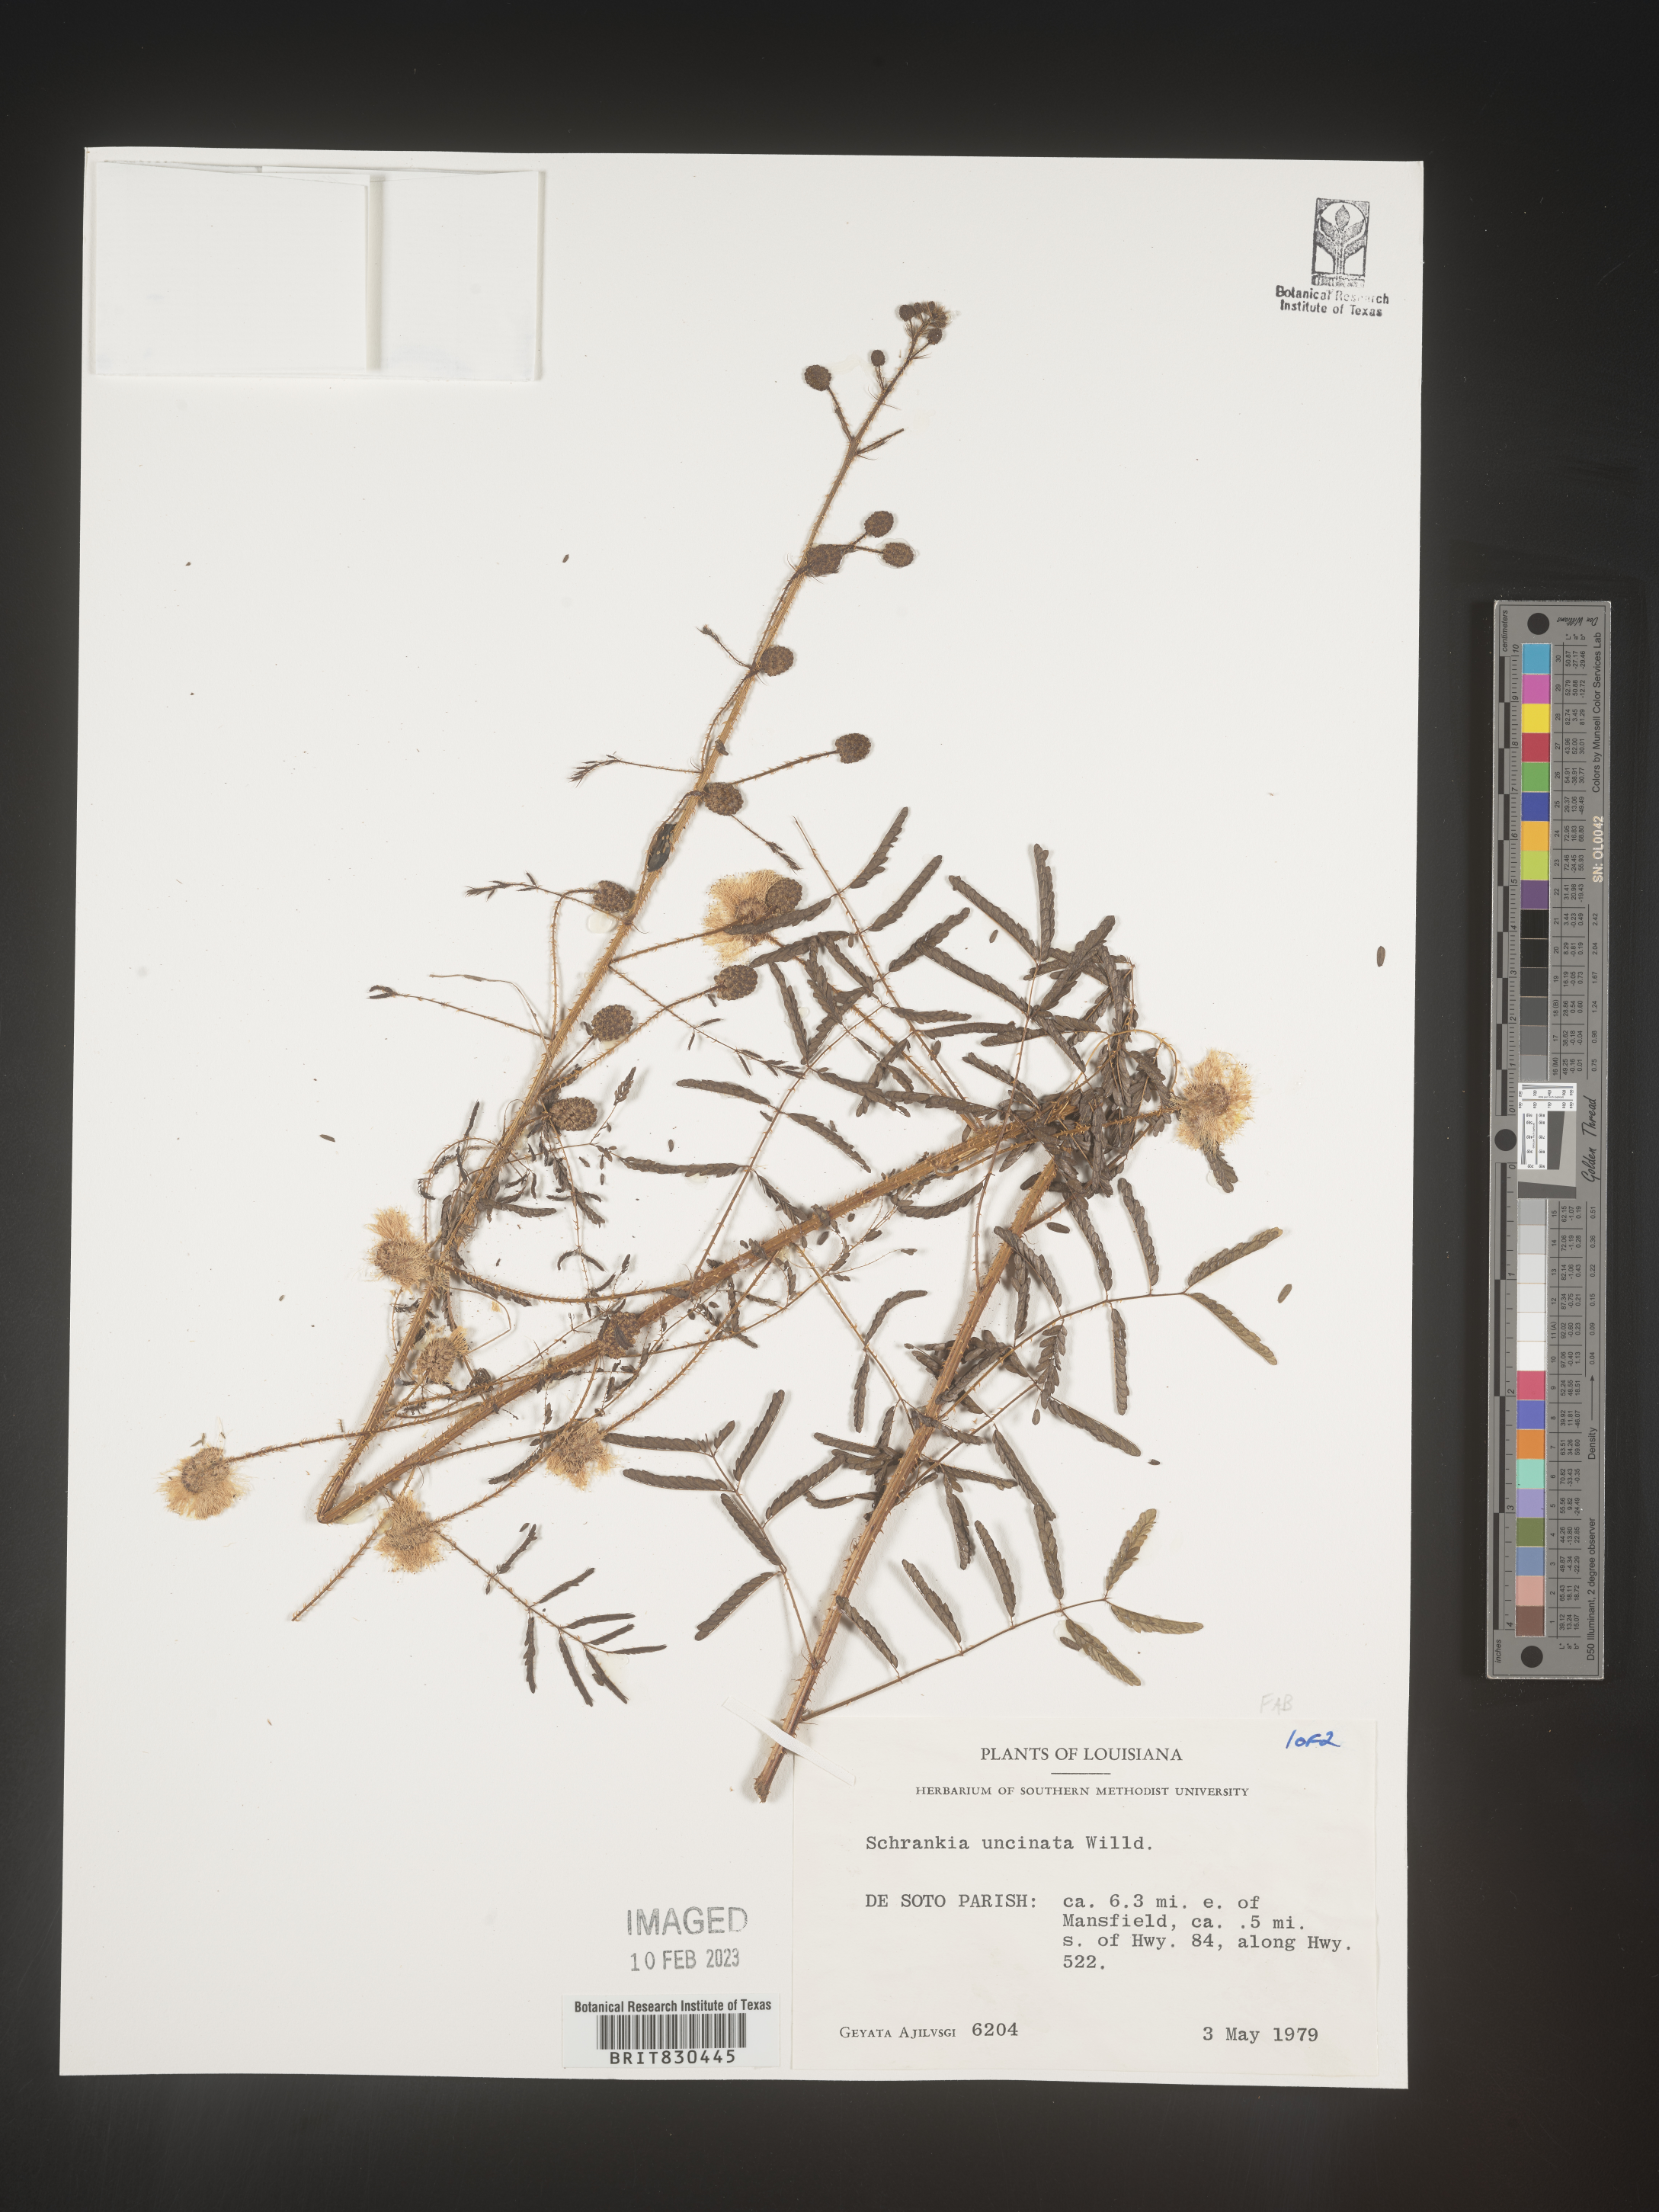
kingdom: Plantae
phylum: Tracheophyta
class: Magnoliopsida
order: Fabales
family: Fabaceae
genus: Mimosa
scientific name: Mimosa
